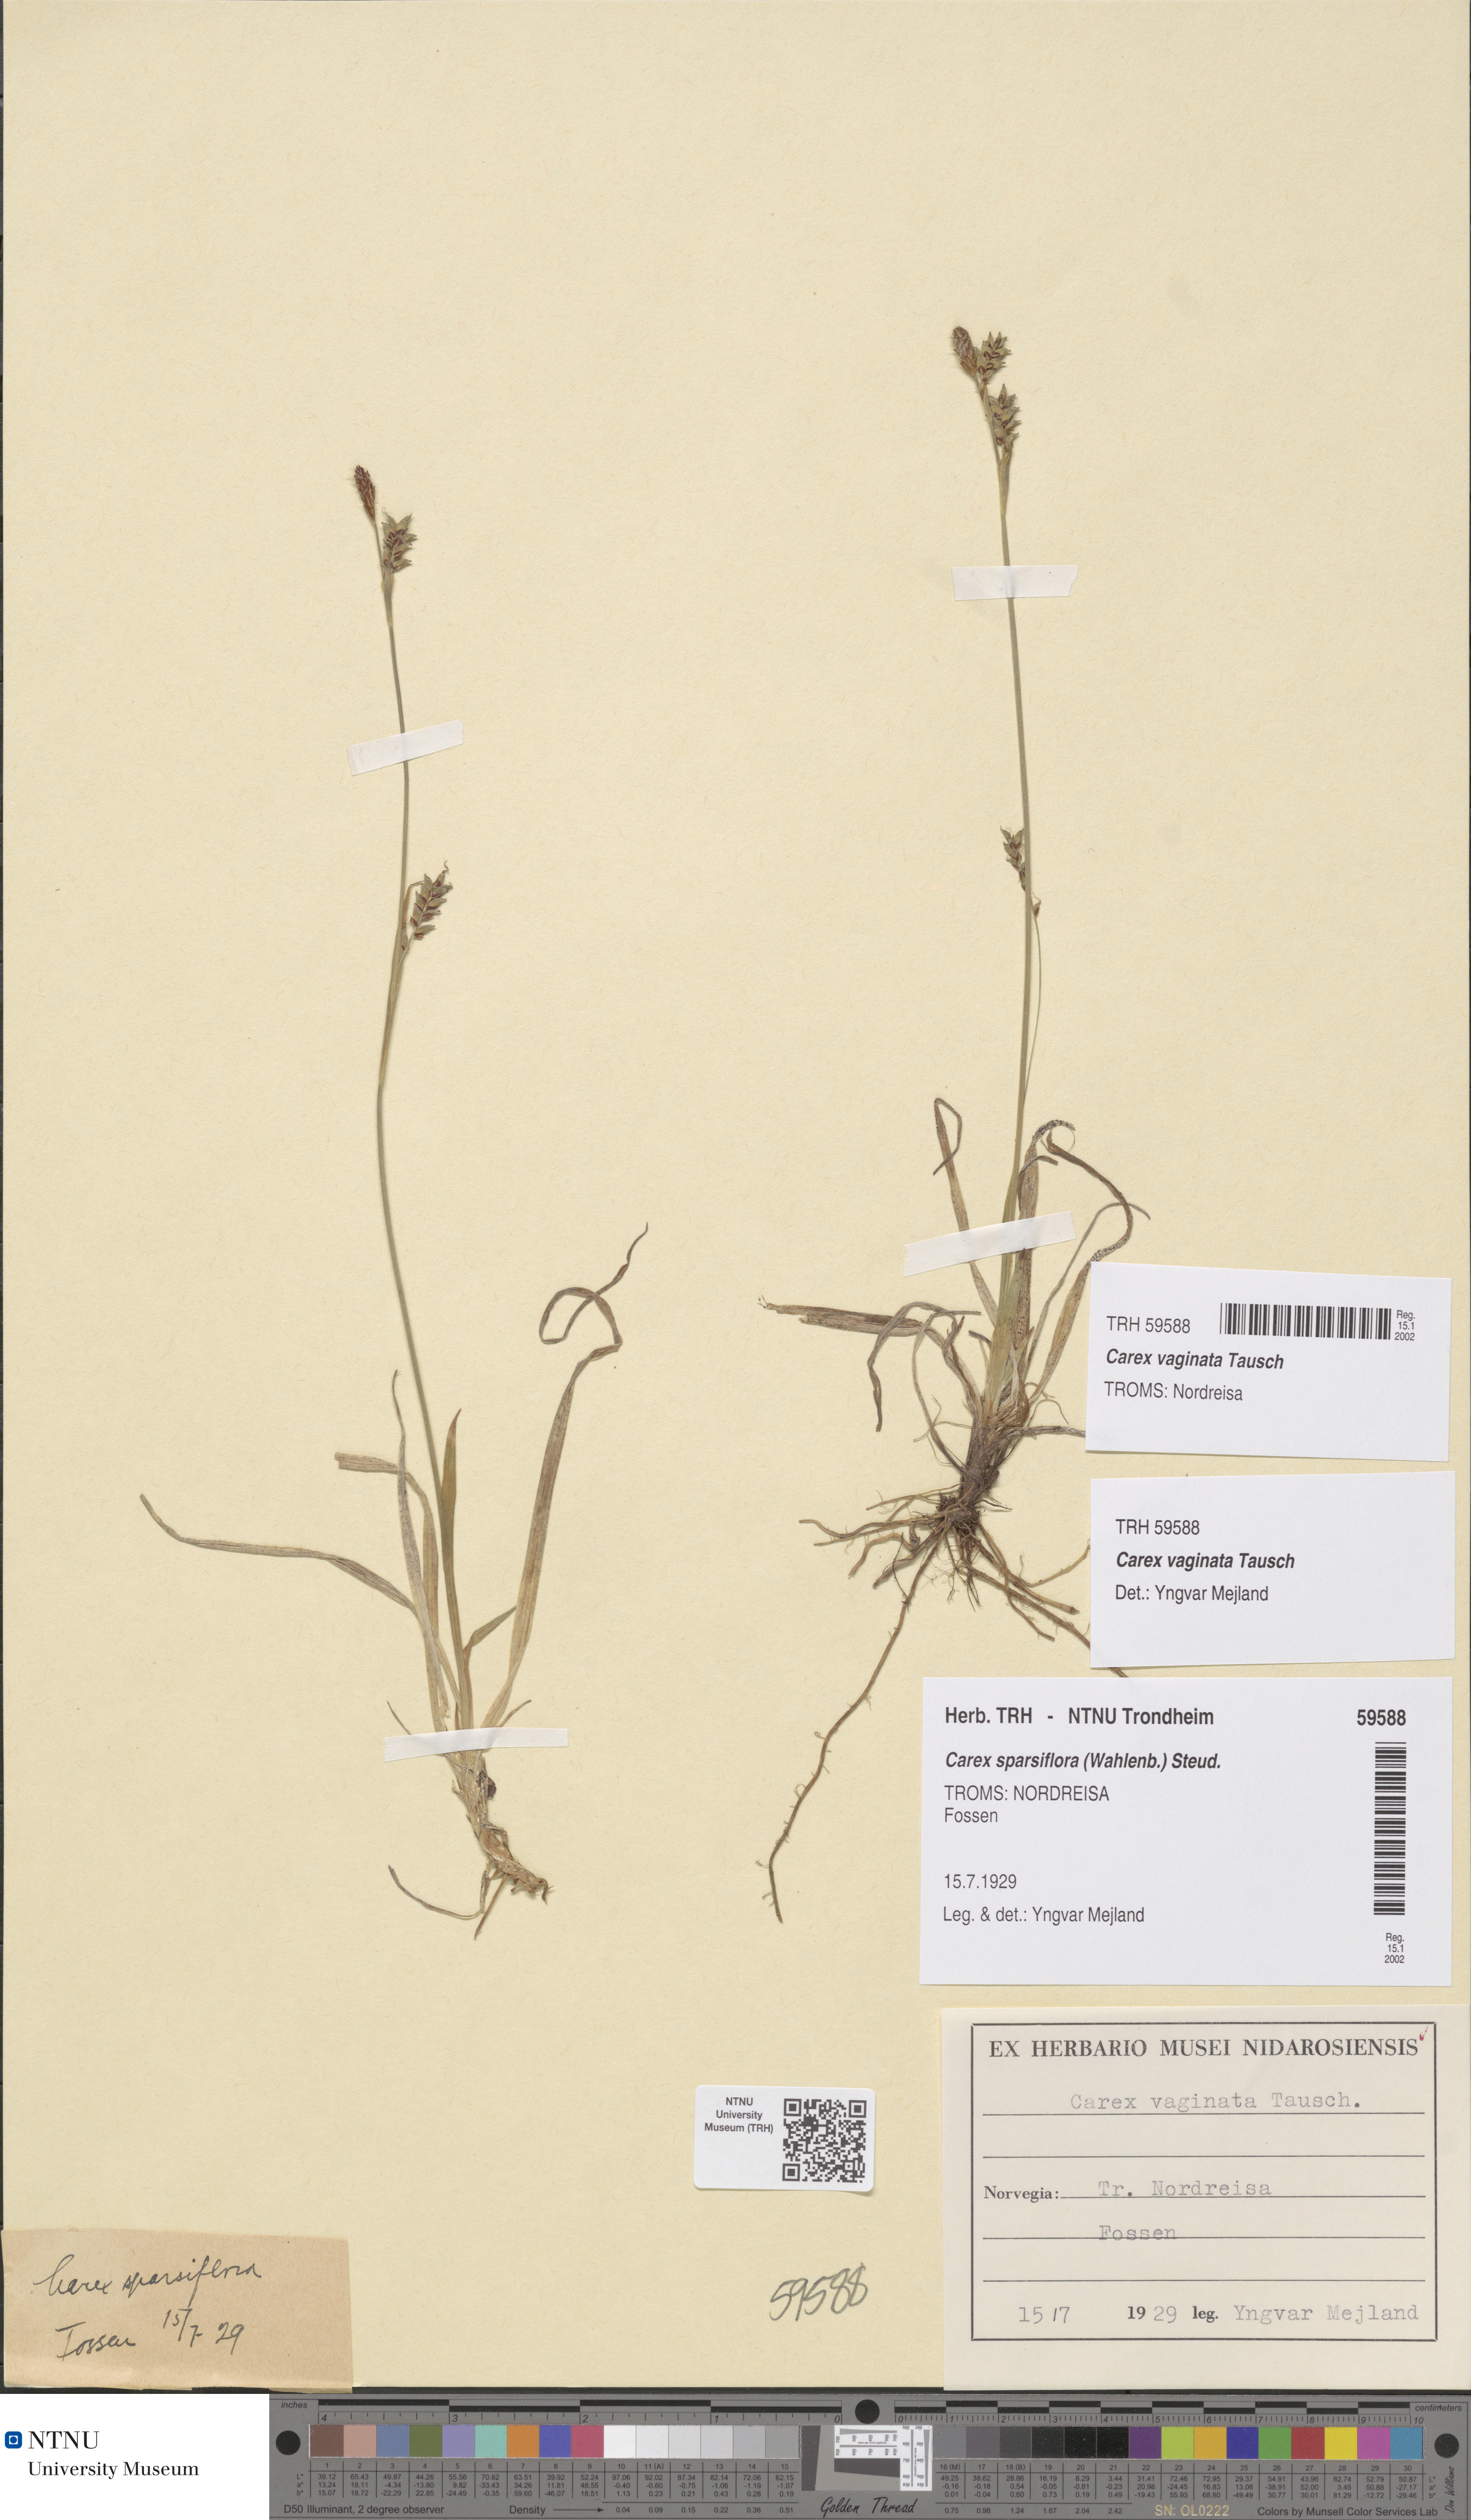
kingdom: Plantae
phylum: Tracheophyta
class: Liliopsida
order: Poales
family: Cyperaceae
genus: Carex
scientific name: Carex vaginata
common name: Sheathed sedge
